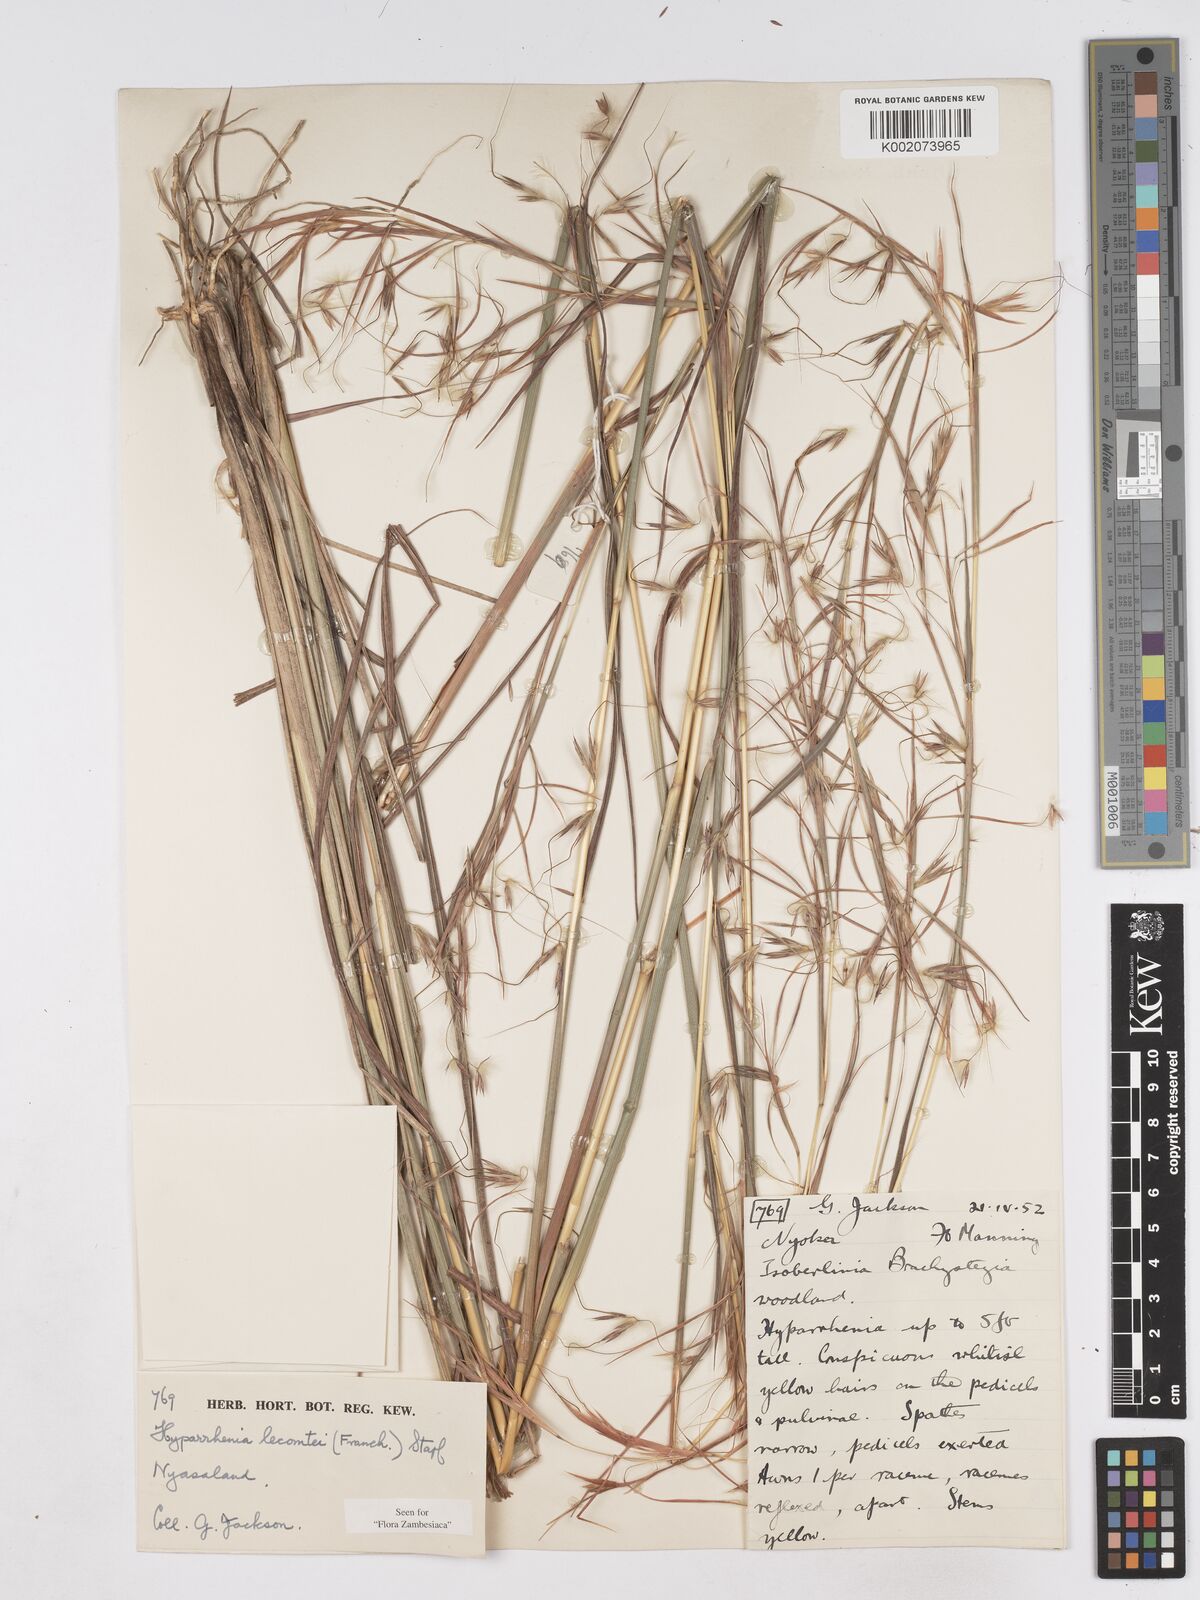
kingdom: Plantae
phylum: Tracheophyta
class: Liliopsida
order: Poales
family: Poaceae
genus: Hyparrhenia
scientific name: Hyparrhenia newtonii
